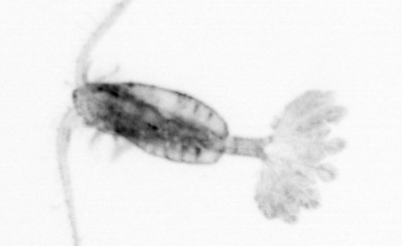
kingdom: Animalia
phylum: Arthropoda
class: Copepoda
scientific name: Copepoda
